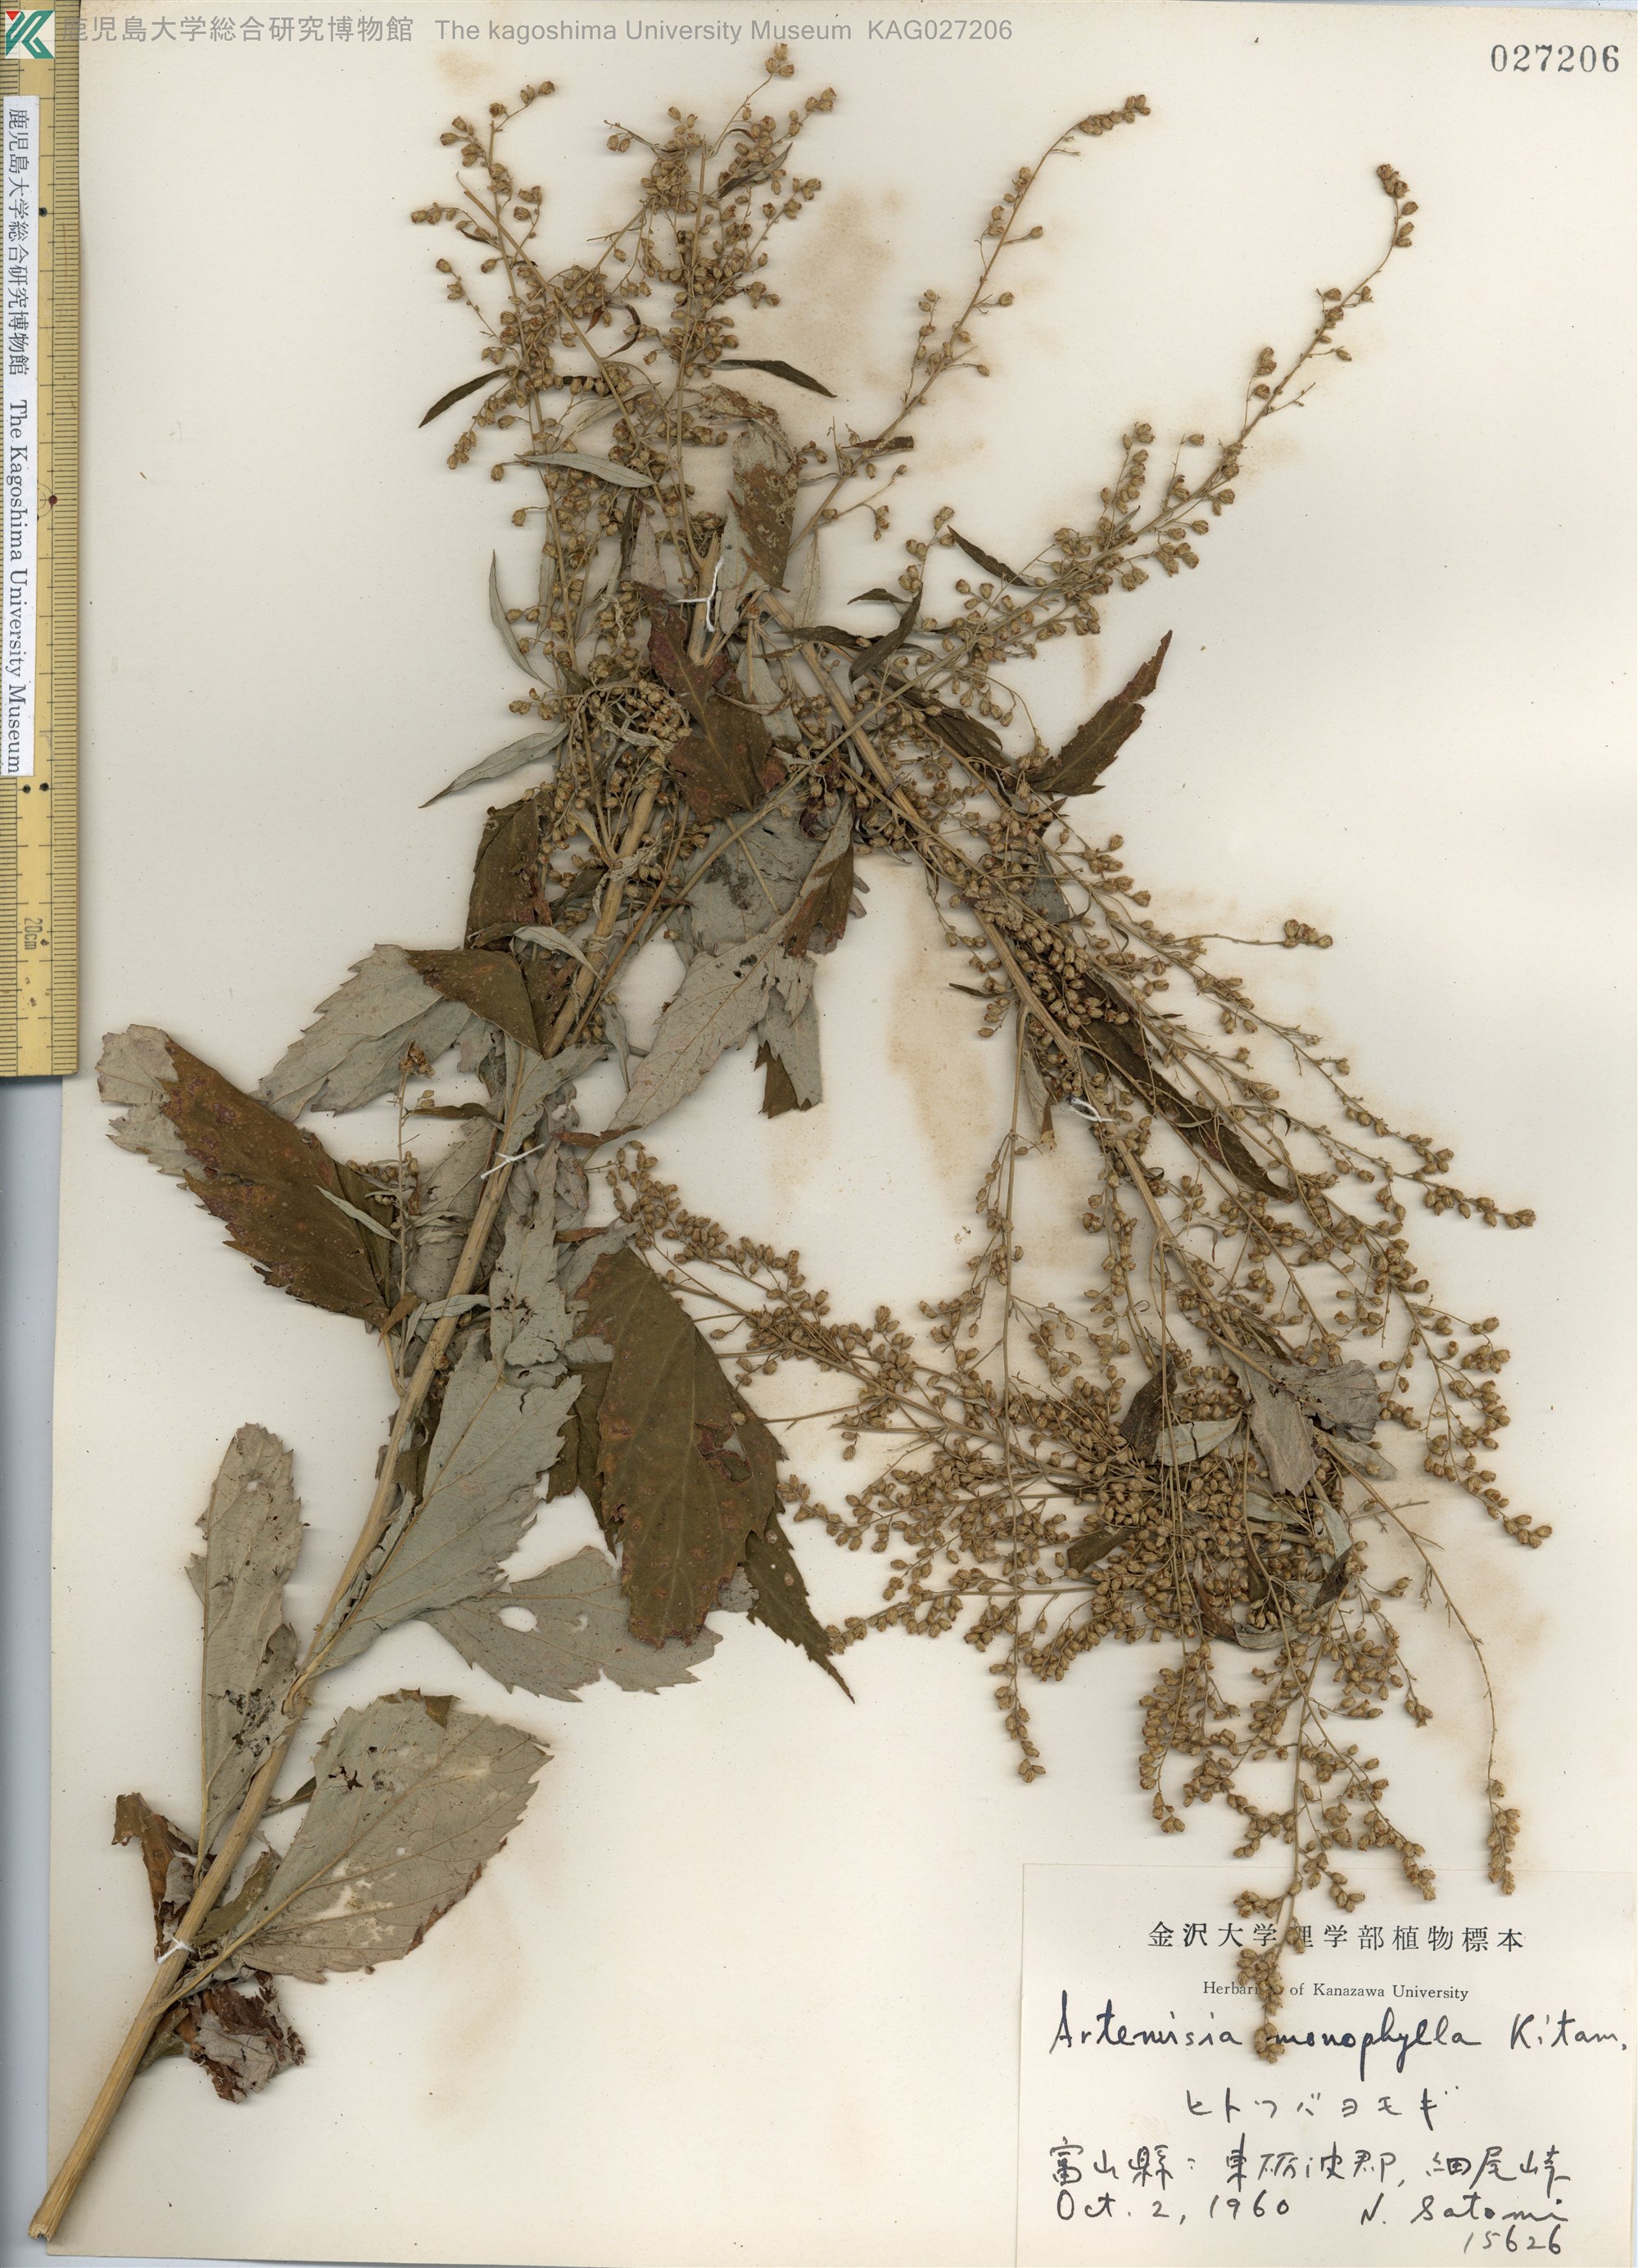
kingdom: Plantae
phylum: Tracheophyta
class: Magnoliopsida
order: Asterales
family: Asteraceae
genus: Artemisia
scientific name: Artemisia monophylla
